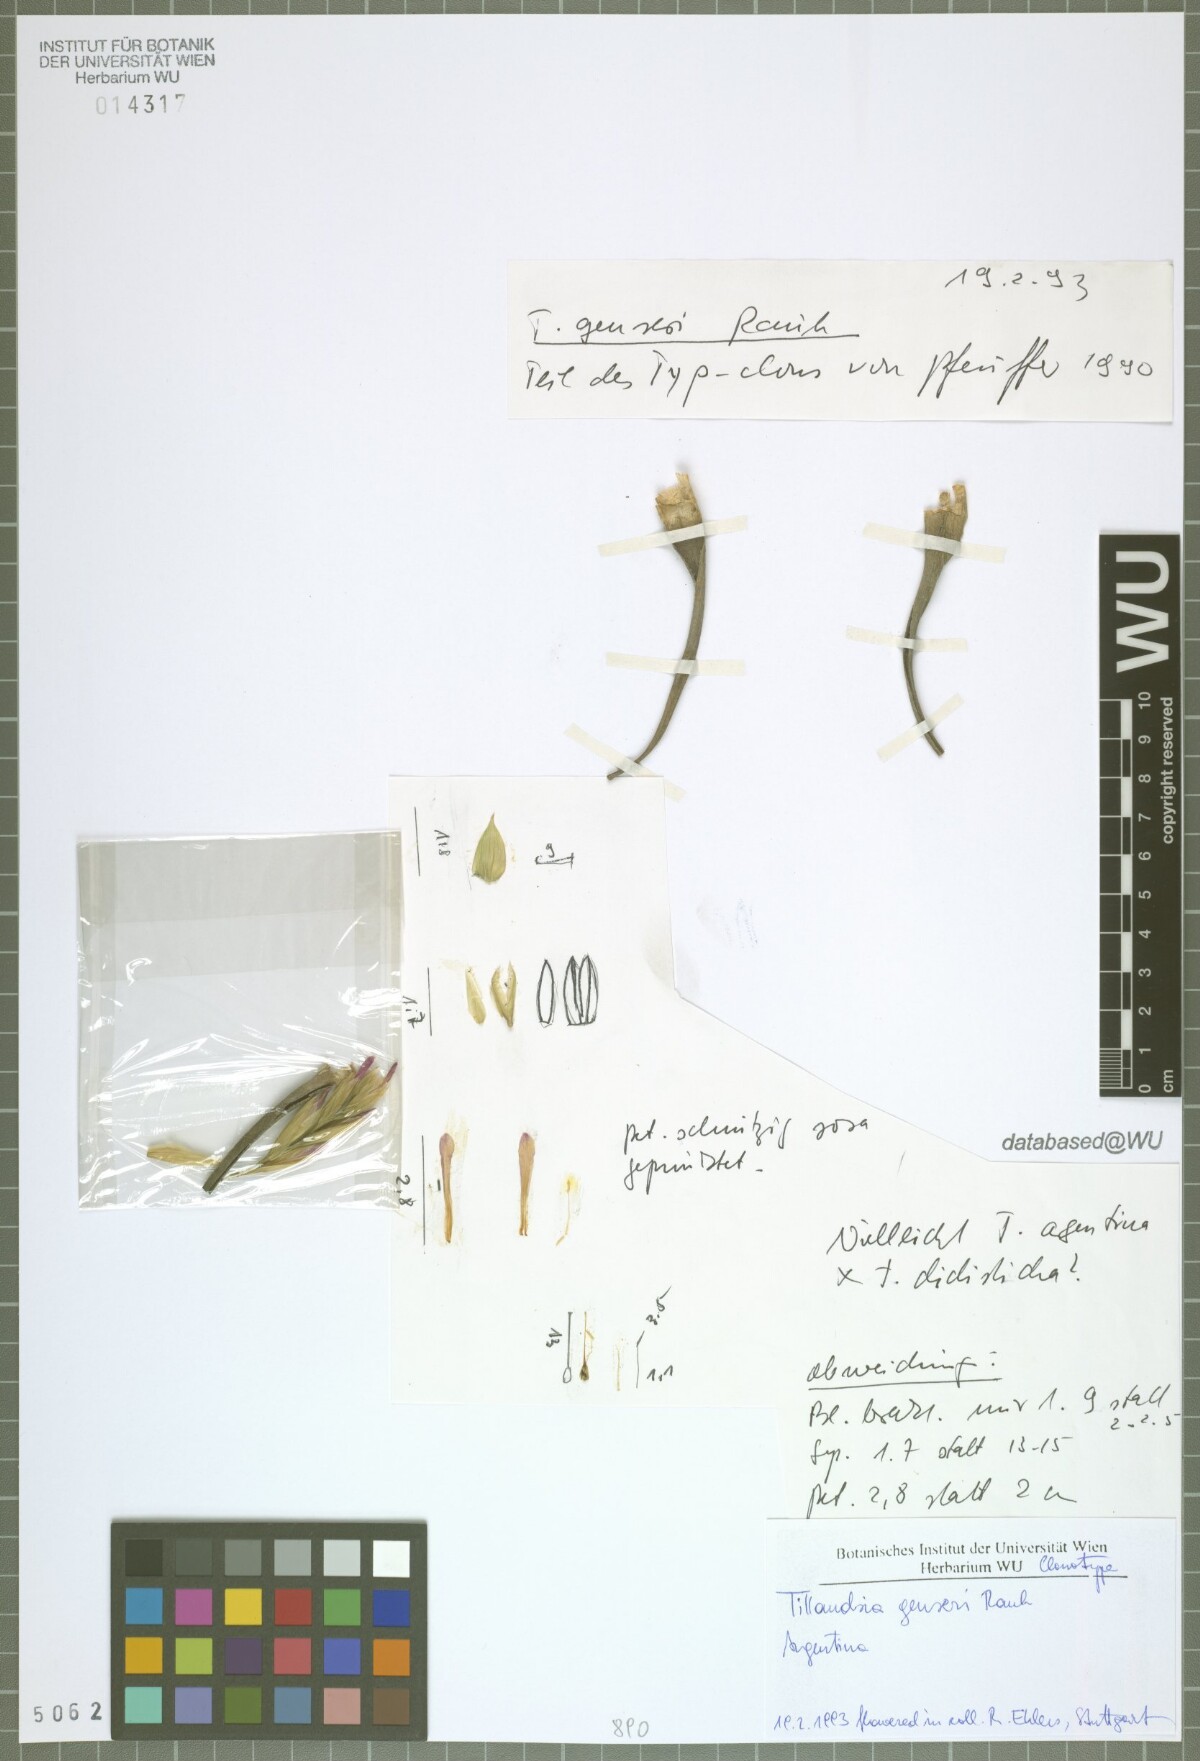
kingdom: Plantae
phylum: Tracheophyta
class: Liliopsida
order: Poales
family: Bromeliaceae
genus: Tillandsia
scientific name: Tillandsia genseri
